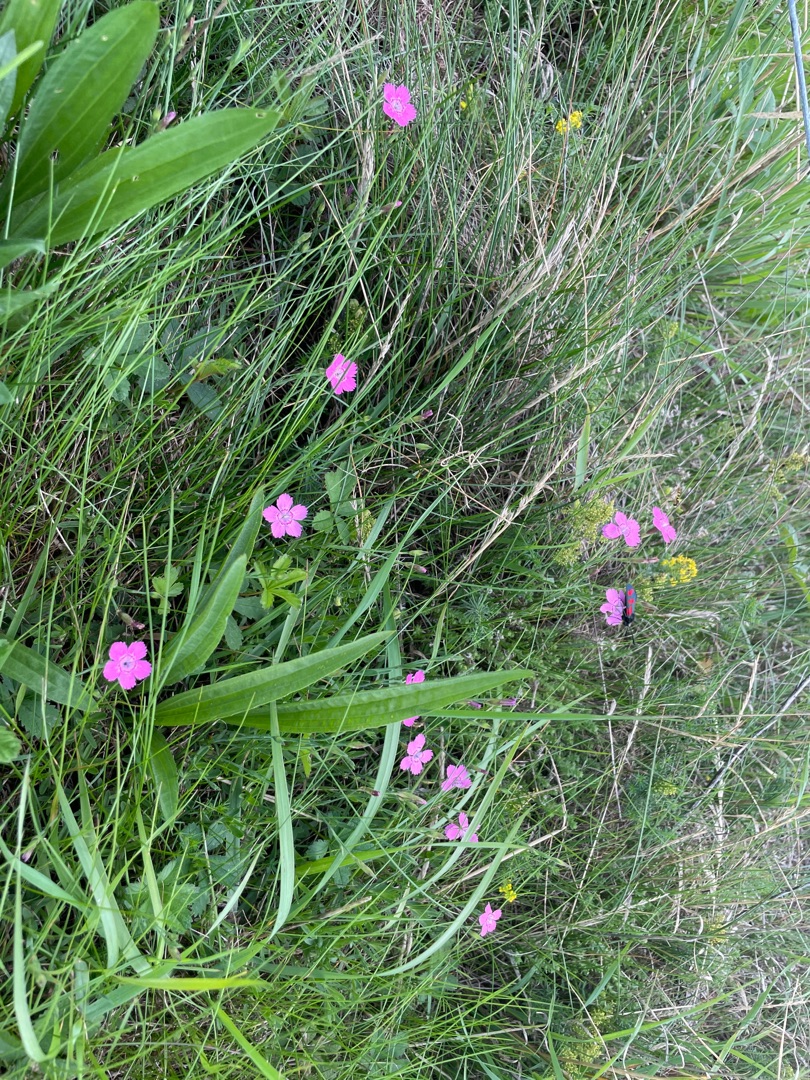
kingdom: Plantae
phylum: Tracheophyta
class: Magnoliopsida
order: Caryophyllales
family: Caryophyllaceae
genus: Dianthus
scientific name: Dianthus deltoides
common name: Bakke-nellike
